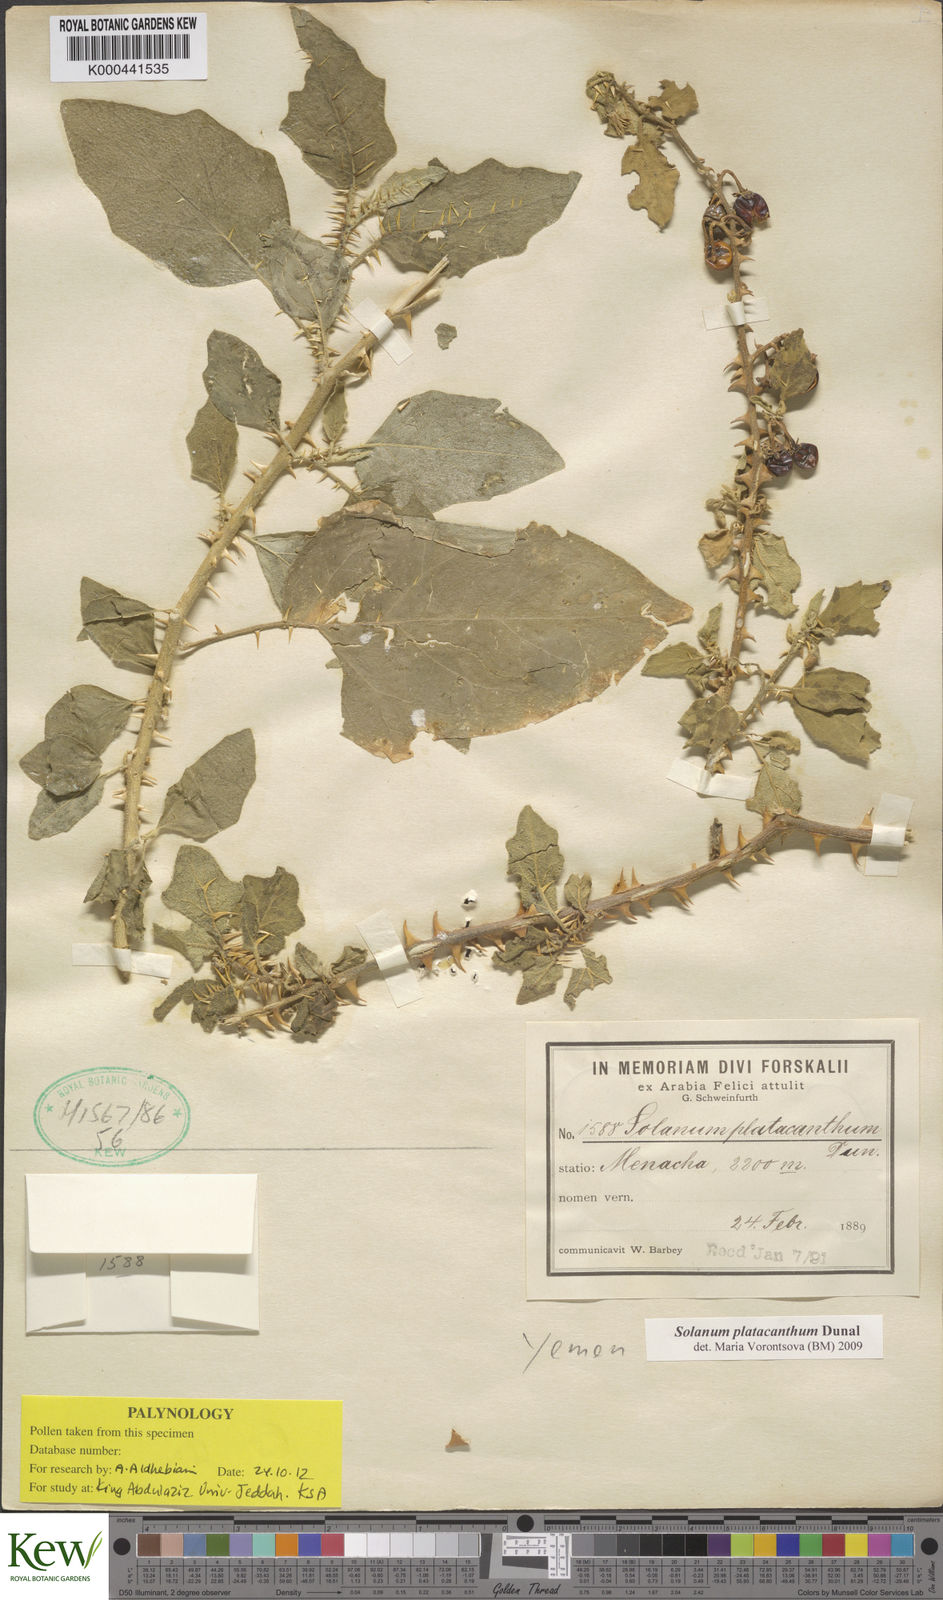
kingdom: Plantae
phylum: Tracheophyta
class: Magnoliopsida
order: Solanales
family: Solanaceae
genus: Solanum
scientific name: Solanum platacanthum
